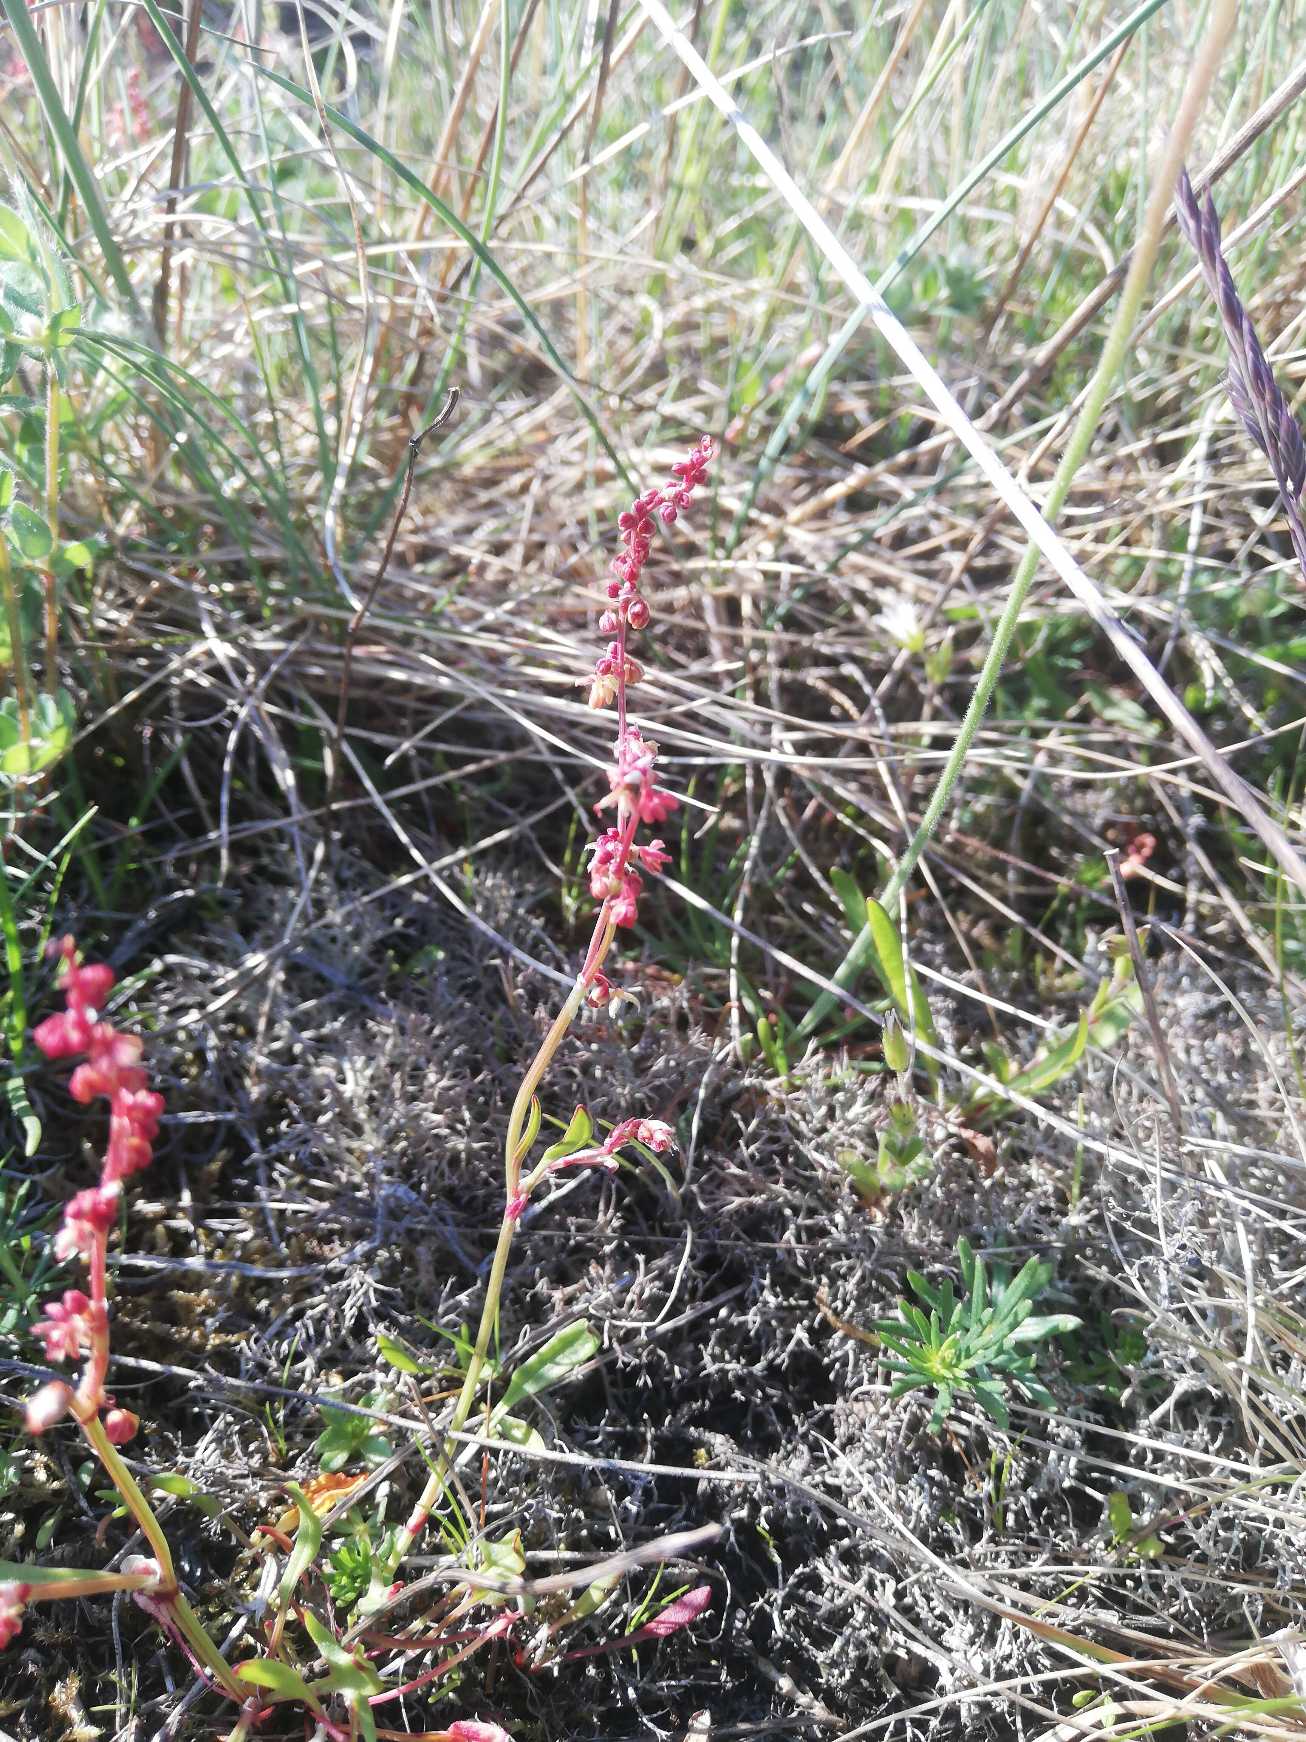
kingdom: Plantae
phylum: Tracheophyta
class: Magnoliopsida
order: Caryophyllales
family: Polygonaceae
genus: Rumex
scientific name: Rumex acetosella
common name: Rødknæ
